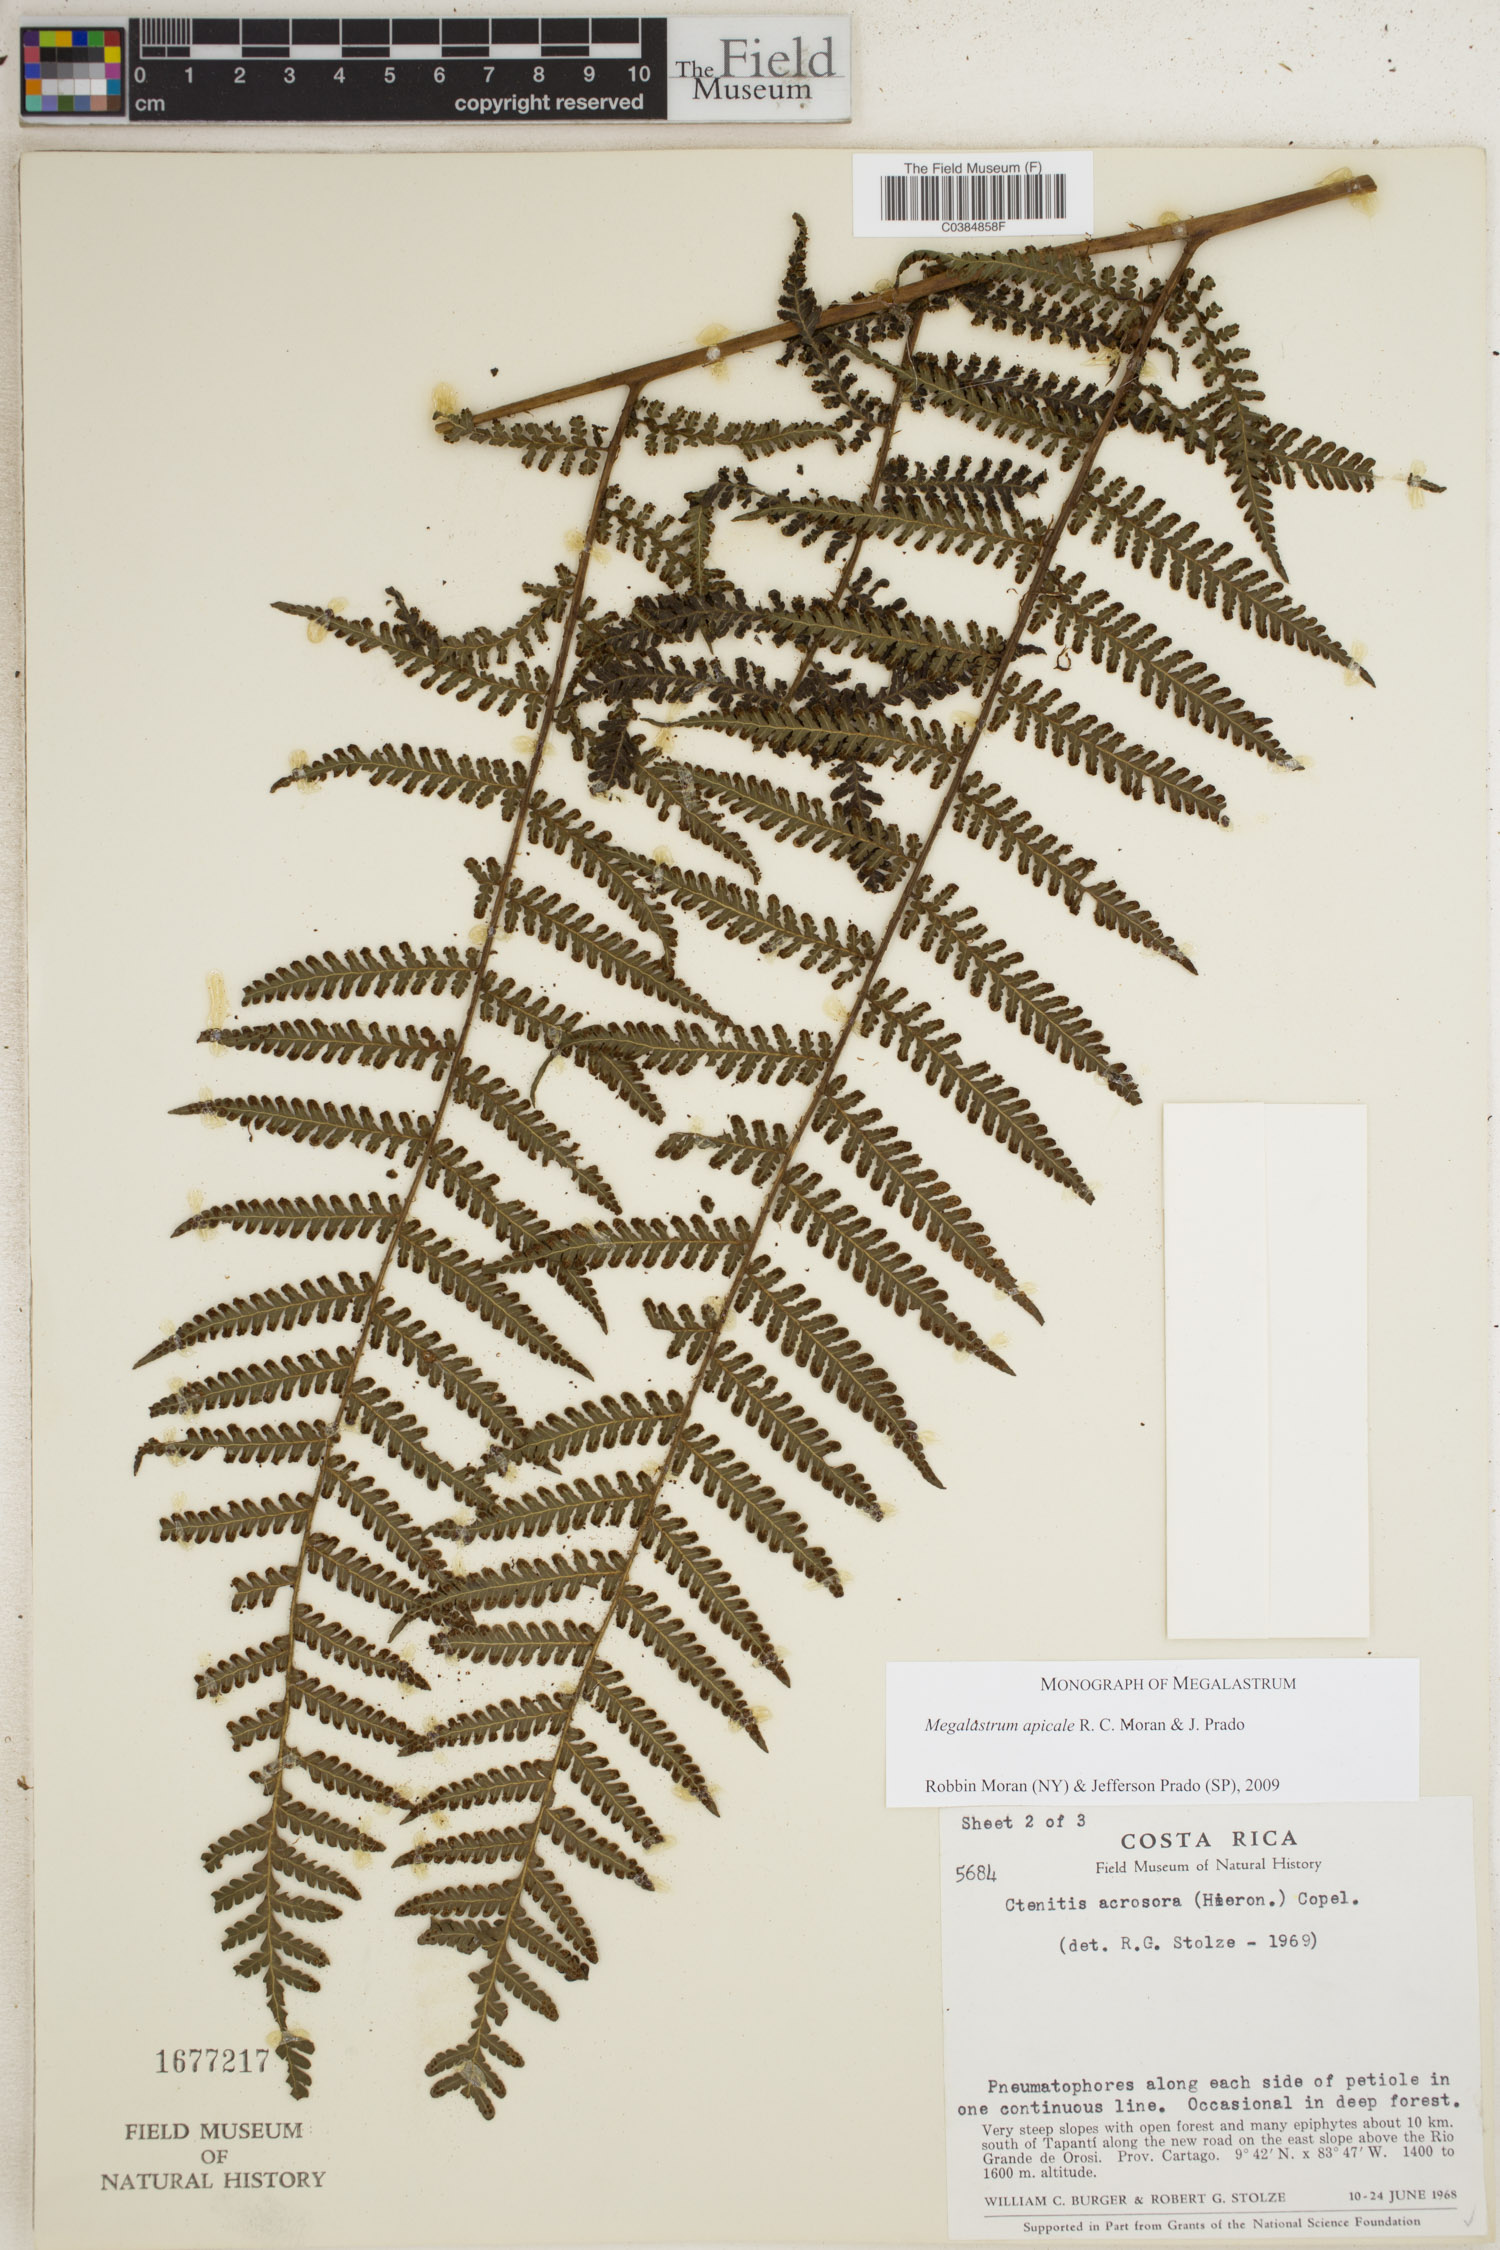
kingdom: Plantae
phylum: Tracheophyta
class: Polypodiopsida
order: Polypodiales
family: Dryopteridaceae
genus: Megalastrum
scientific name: Megalastrum apicale
